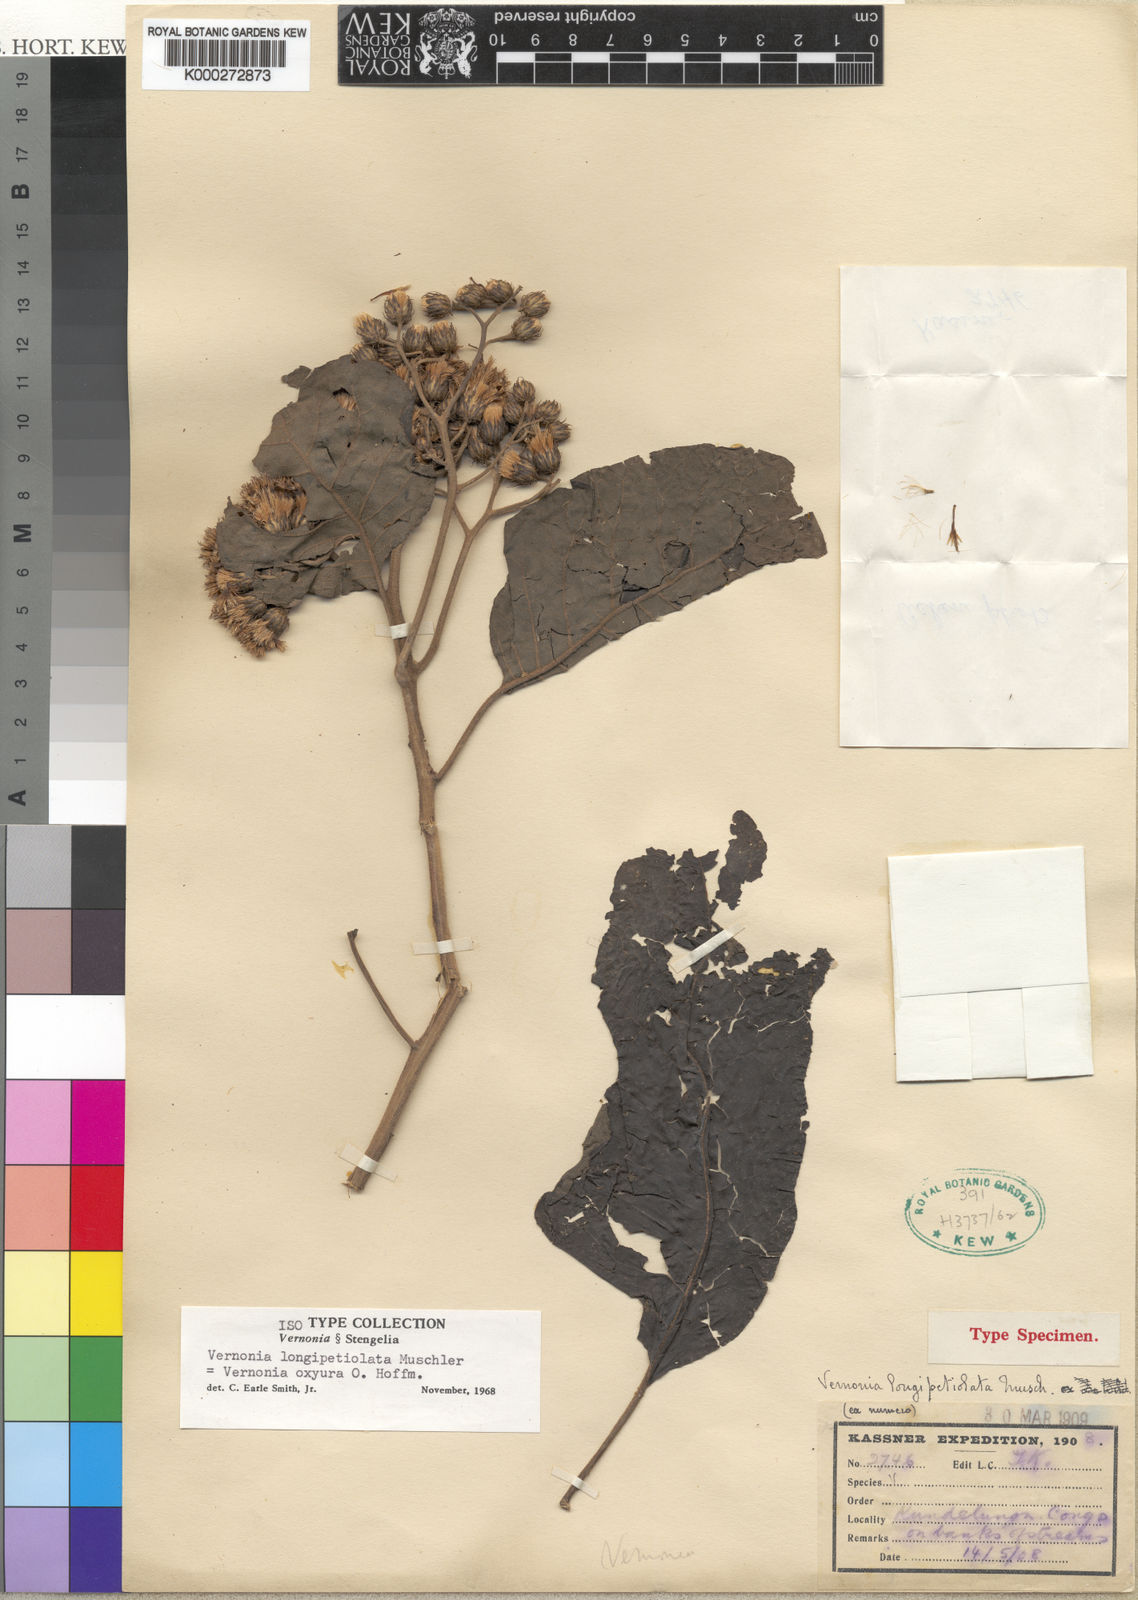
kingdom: Plantae
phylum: Tracheophyta
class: Magnoliopsida
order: Asterales
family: Asteraceae
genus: Vernonia
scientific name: Vernonia colorata
